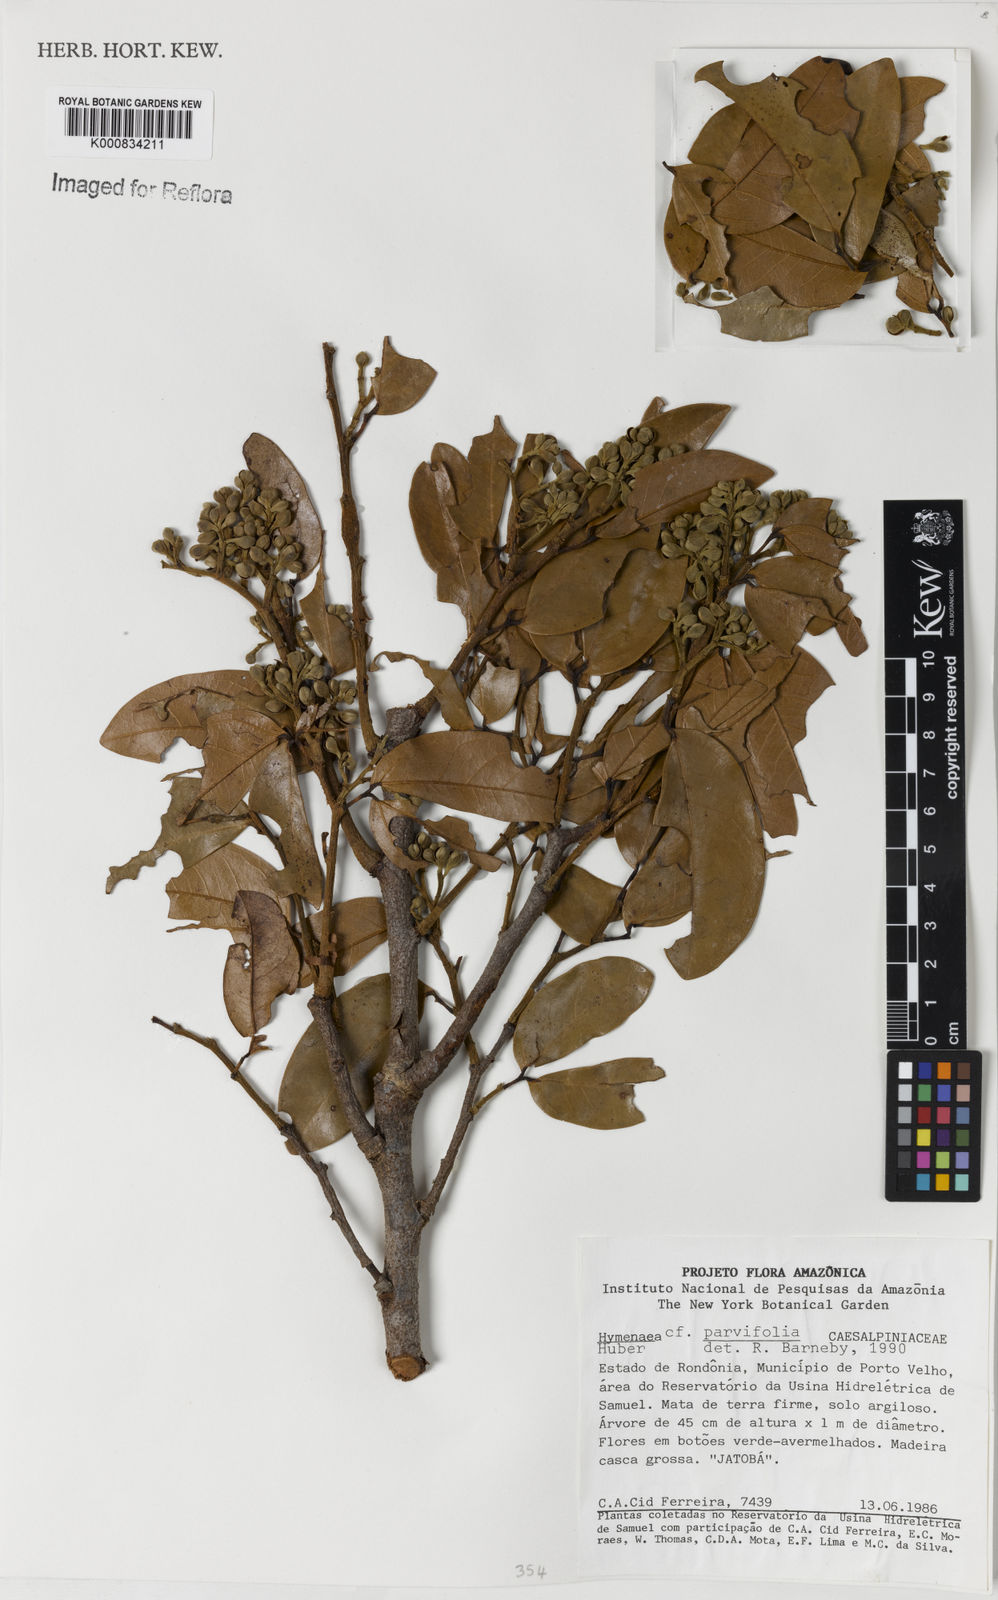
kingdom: Plantae
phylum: Tracheophyta
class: Magnoliopsida
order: Fabales
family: Fabaceae
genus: Hymenaea
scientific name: Hymenaea parvifolia
